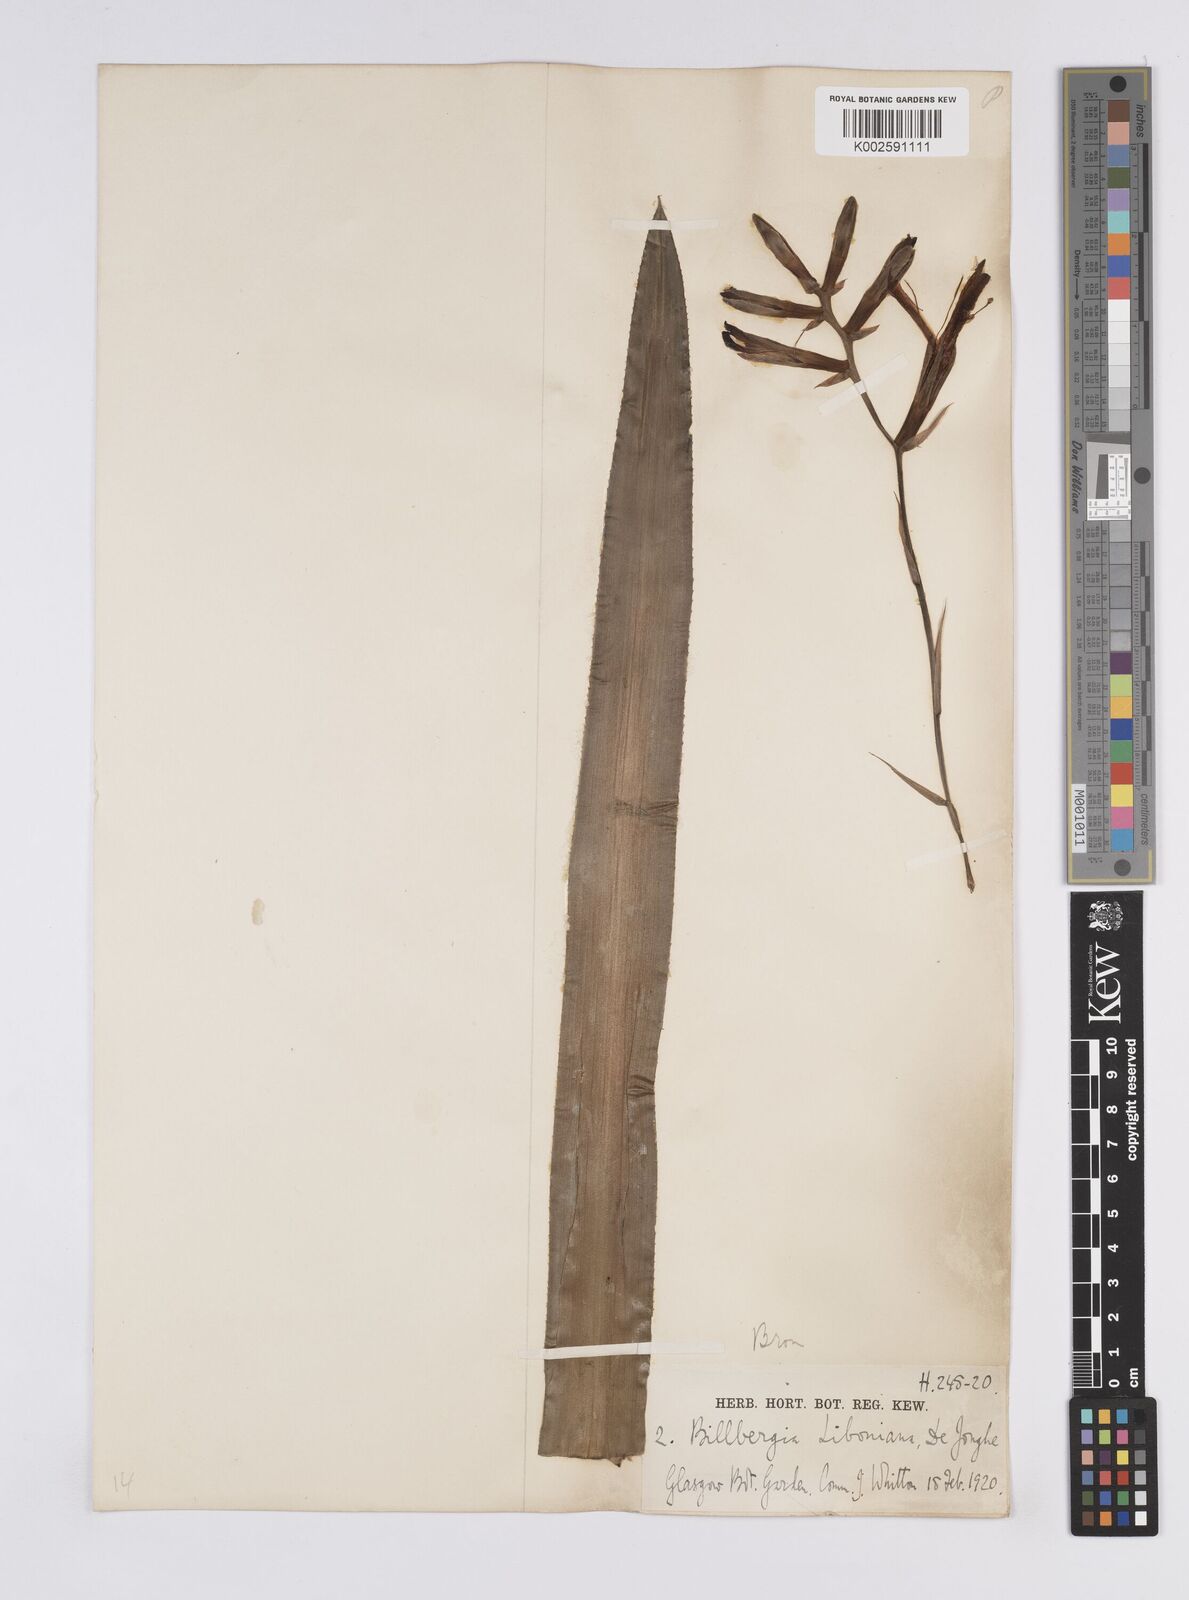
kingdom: Plantae
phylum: Tracheophyta
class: Liliopsida
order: Poales
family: Bromeliaceae
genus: Quesnelia
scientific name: Quesnelia liboniana
